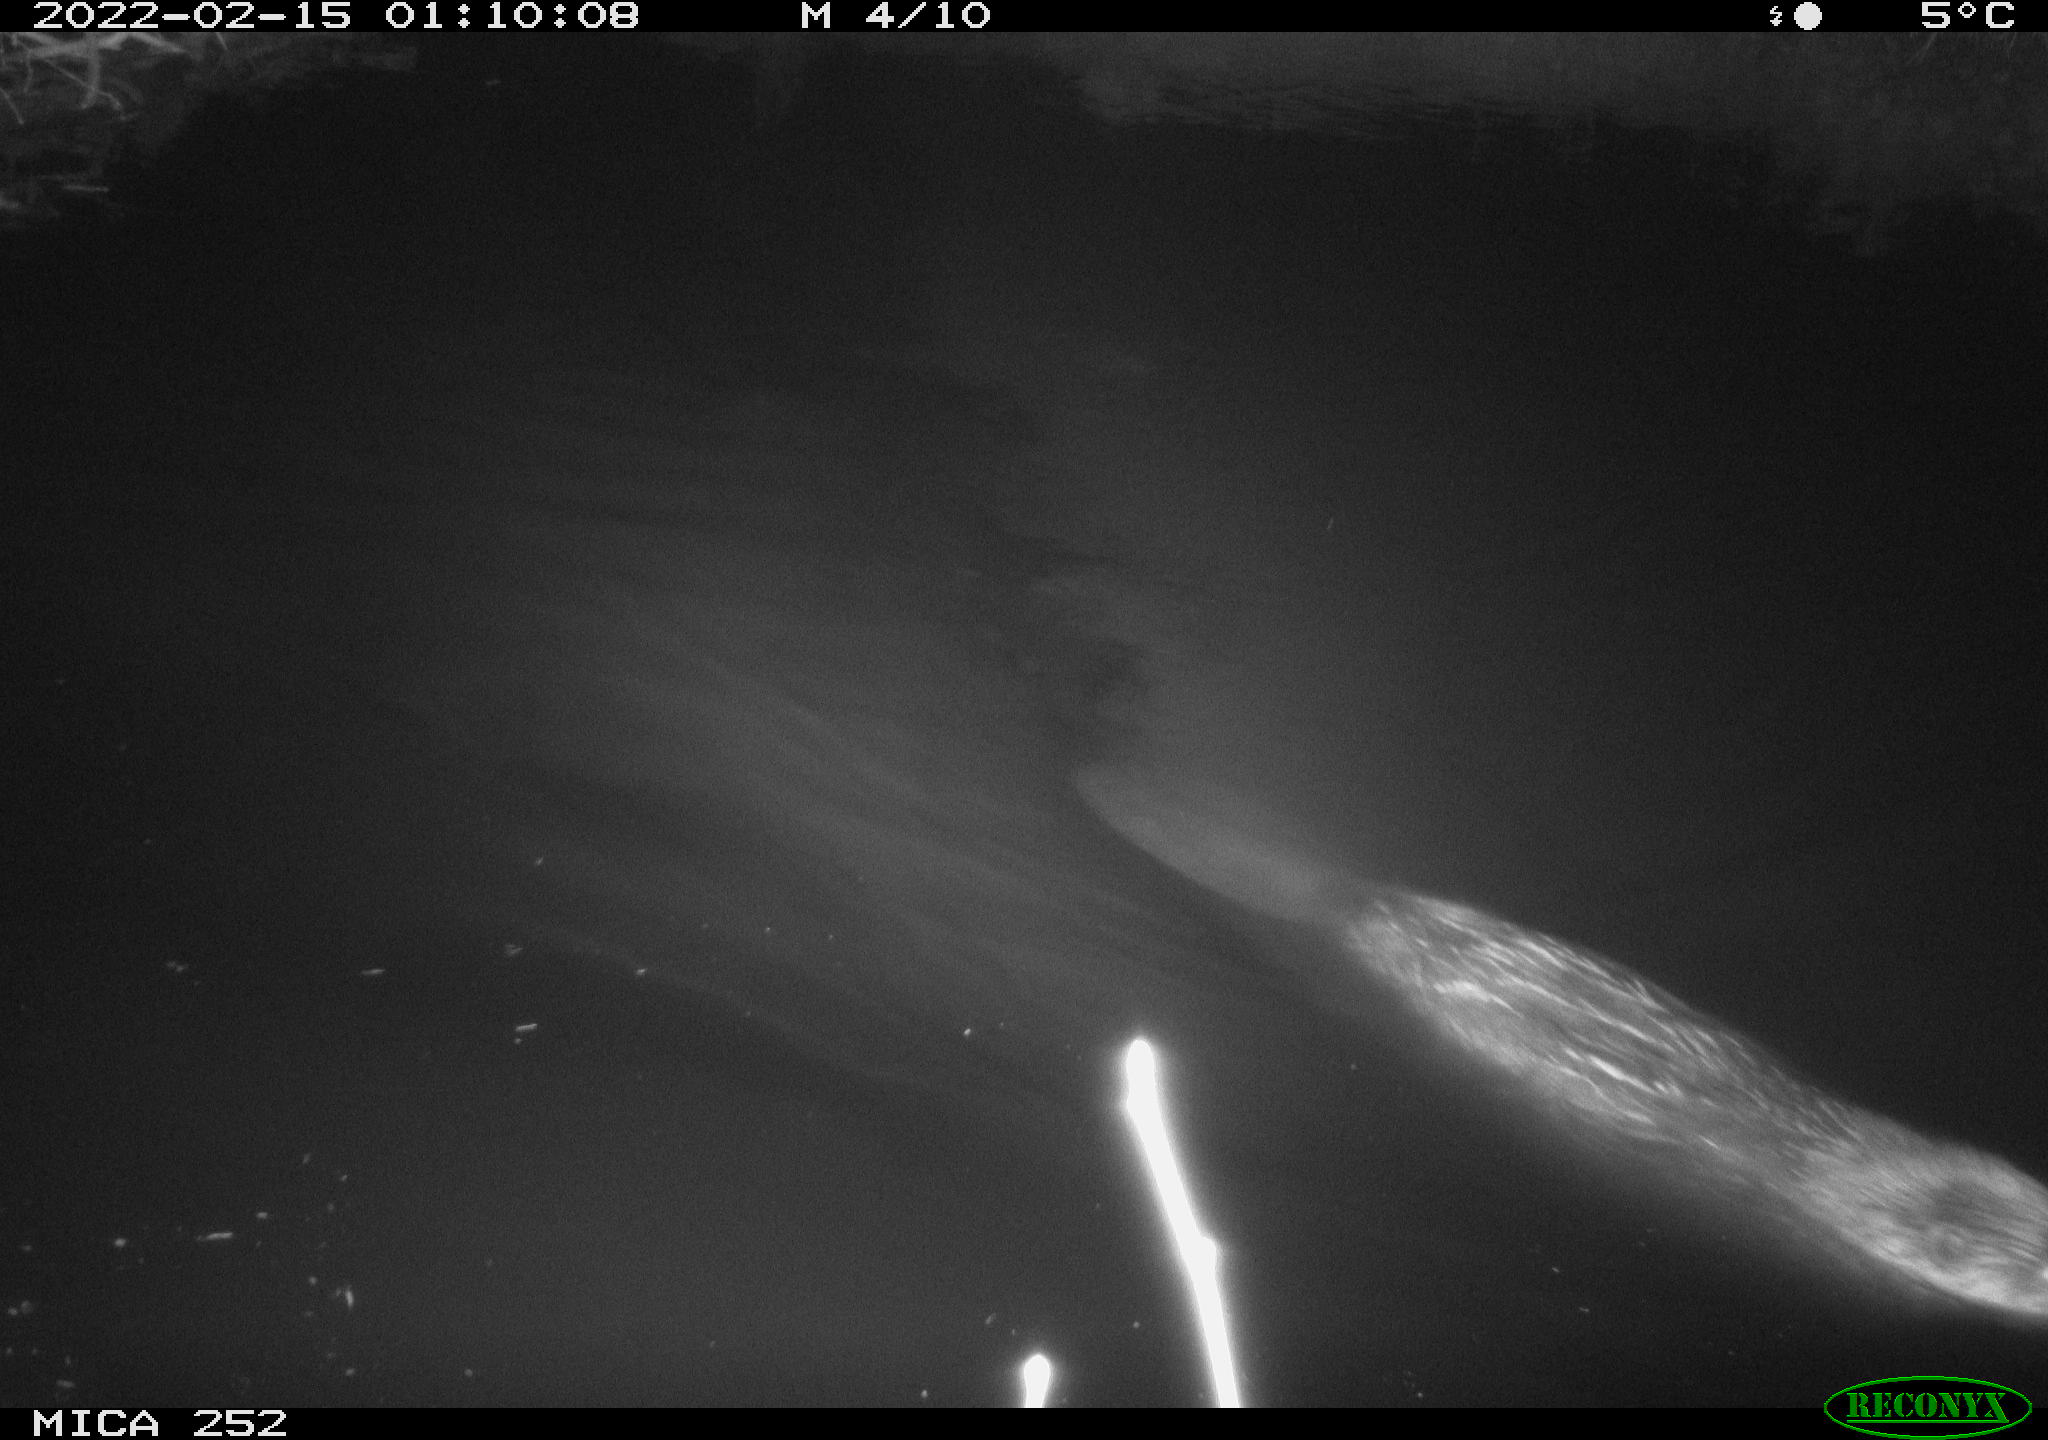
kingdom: Animalia
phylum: Chordata
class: Mammalia
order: Rodentia
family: Castoridae
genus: Castor
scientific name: Castor fiber
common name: Eurasian beaver
